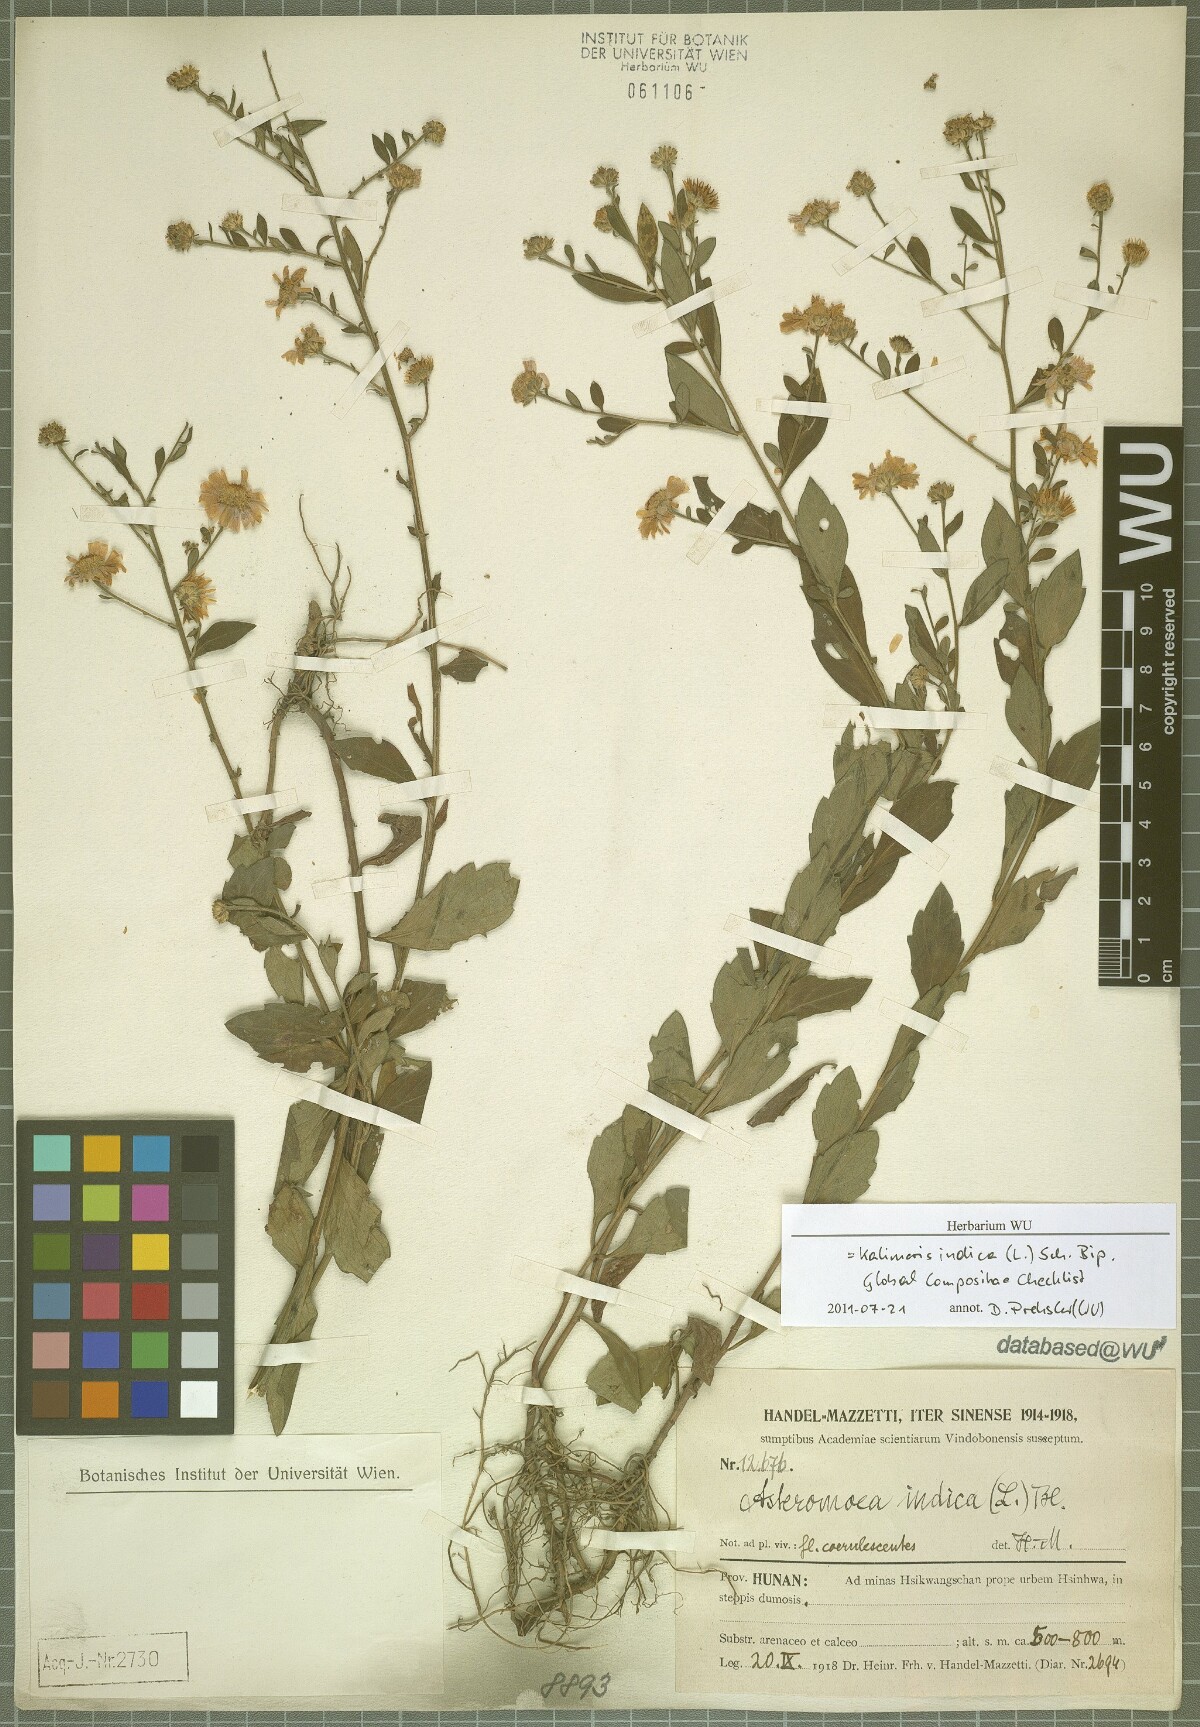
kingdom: Plantae
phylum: Tracheophyta
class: Magnoliopsida
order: Asterales
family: Asteraceae
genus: Kalimeris
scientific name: Kalimeris indica
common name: Indian aster
